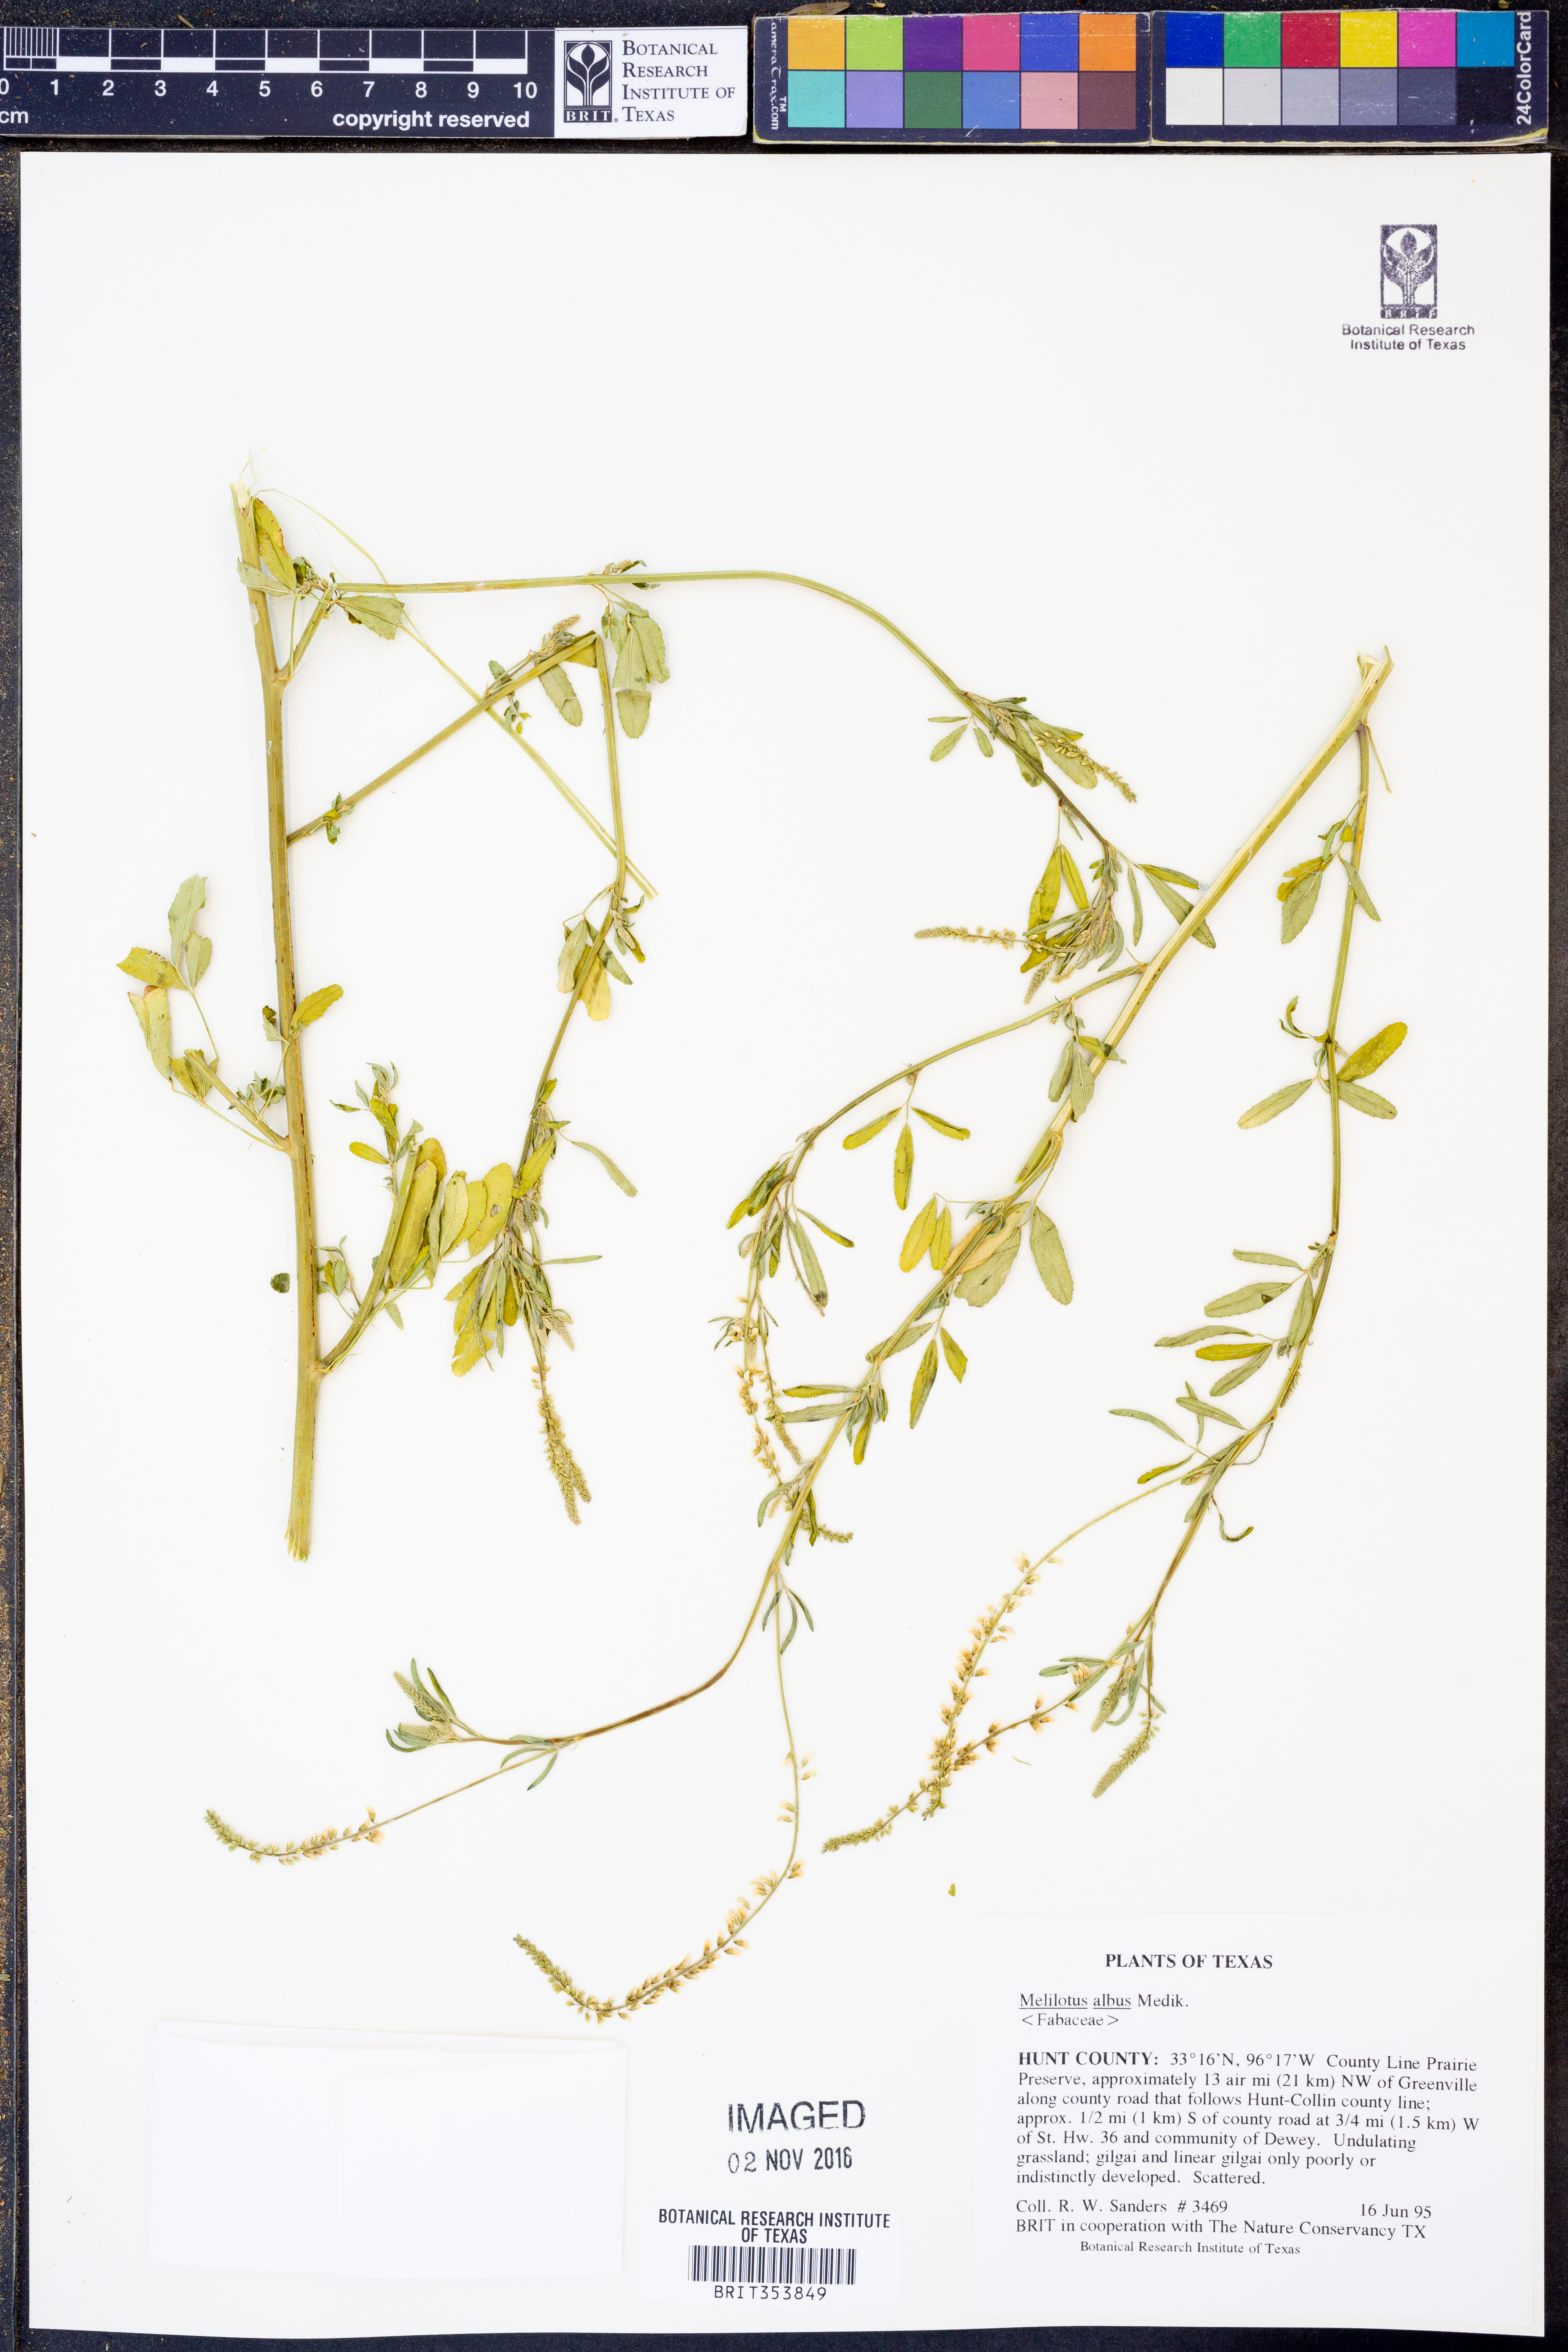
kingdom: Plantae
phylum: Tracheophyta
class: Magnoliopsida
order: Fabales
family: Fabaceae
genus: Melilotus
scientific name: Melilotus albus
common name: White melilot
